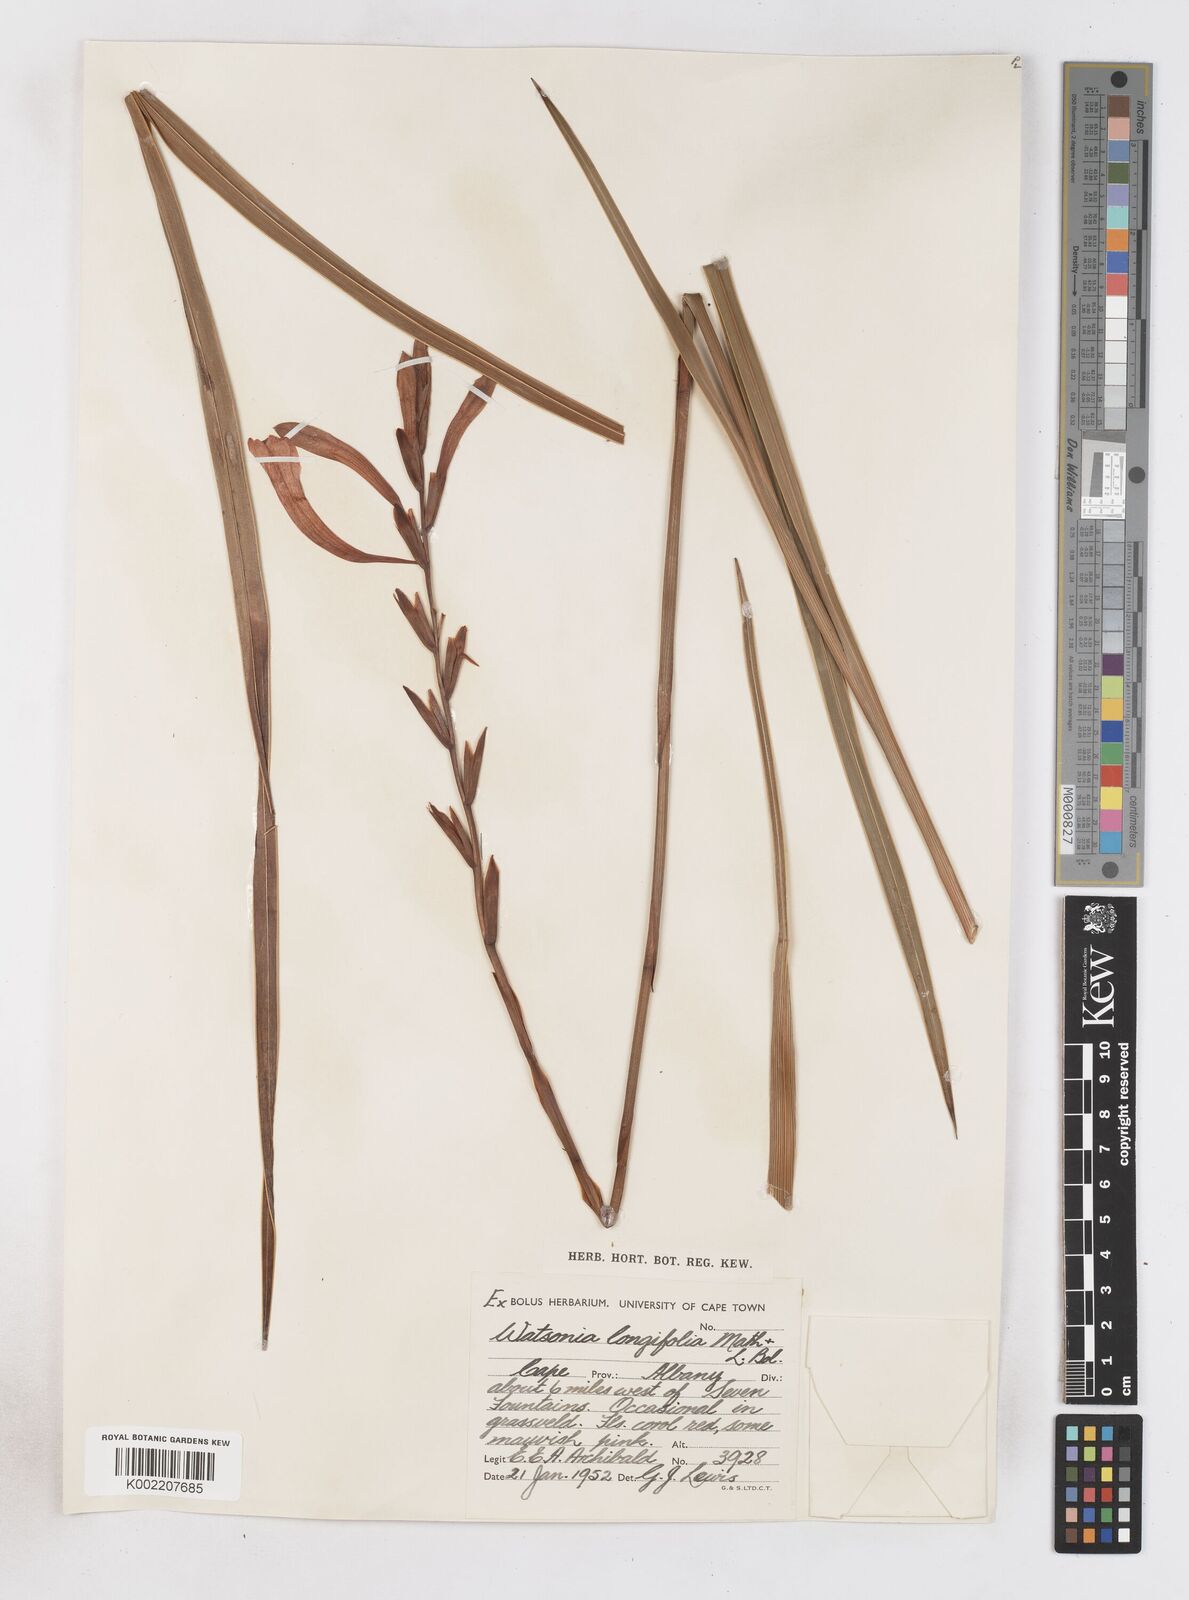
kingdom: Plantae
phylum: Tracheophyta
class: Liliopsida
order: Asparagales
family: Iridaceae
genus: Watsonia
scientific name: Watsonia longifolia
